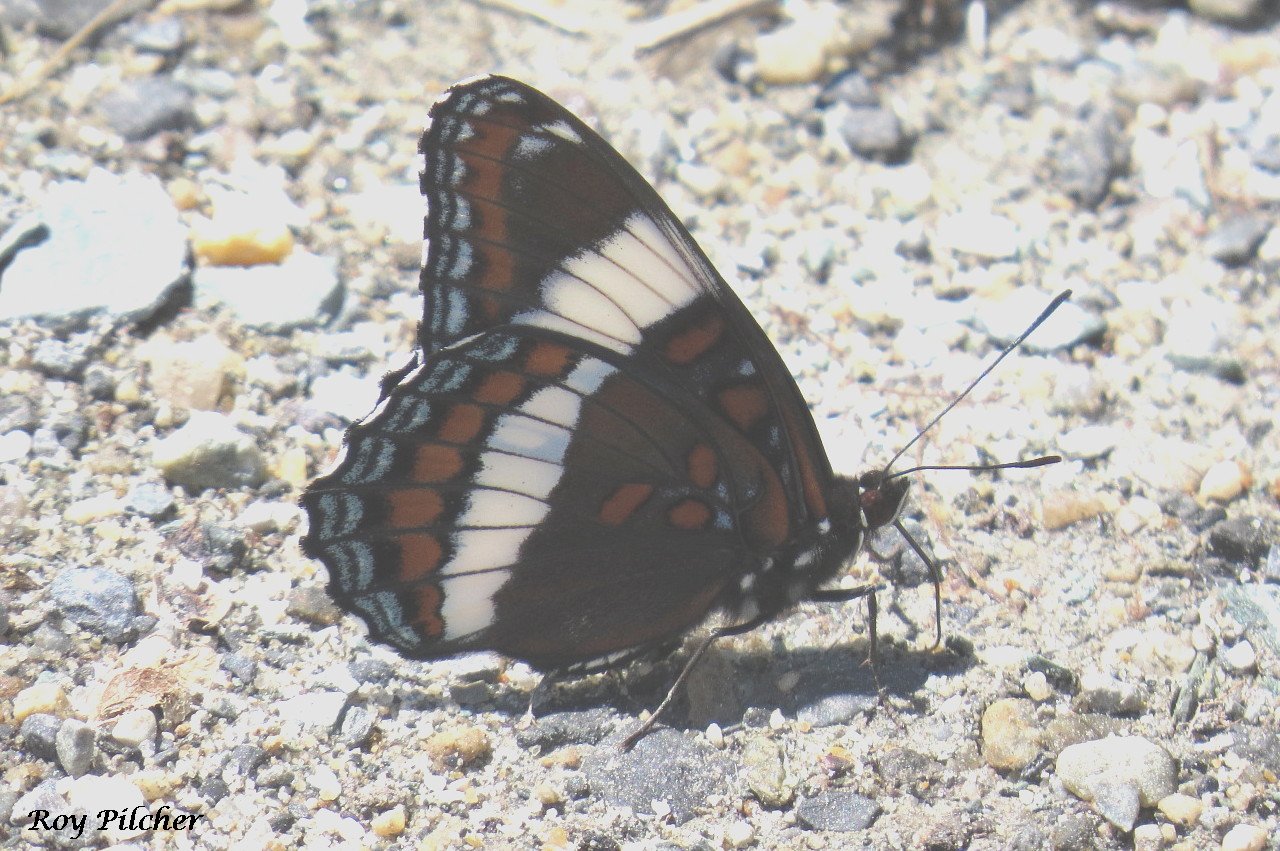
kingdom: Animalia
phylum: Arthropoda
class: Insecta
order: Lepidoptera
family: Nymphalidae
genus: Limenitis
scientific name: Limenitis
